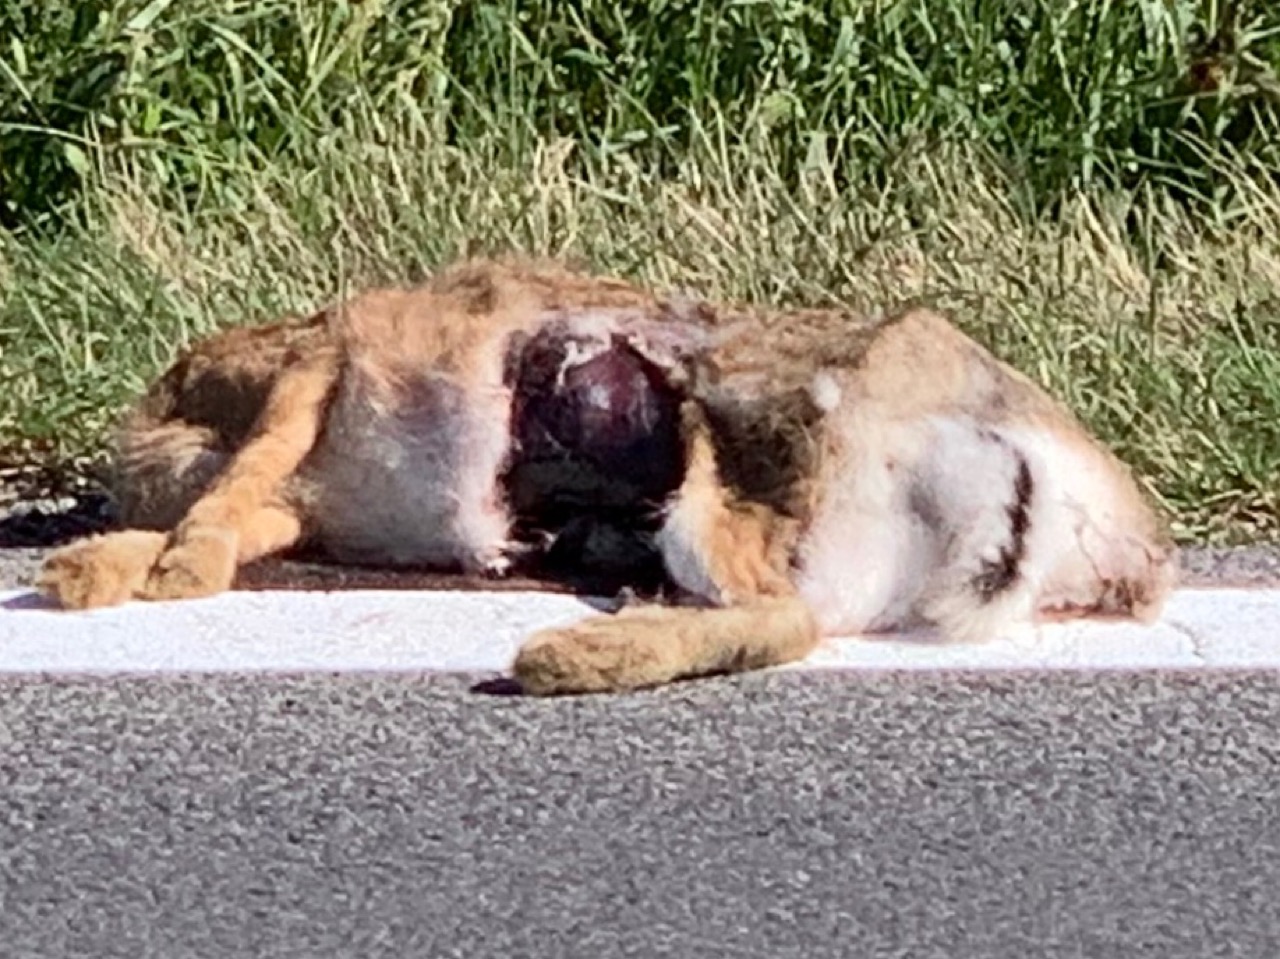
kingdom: Animalia
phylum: Chordata
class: Mammalia
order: Lagomorpha
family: Leporidae
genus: Lepus
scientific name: Lepus europaeus
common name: European hare
